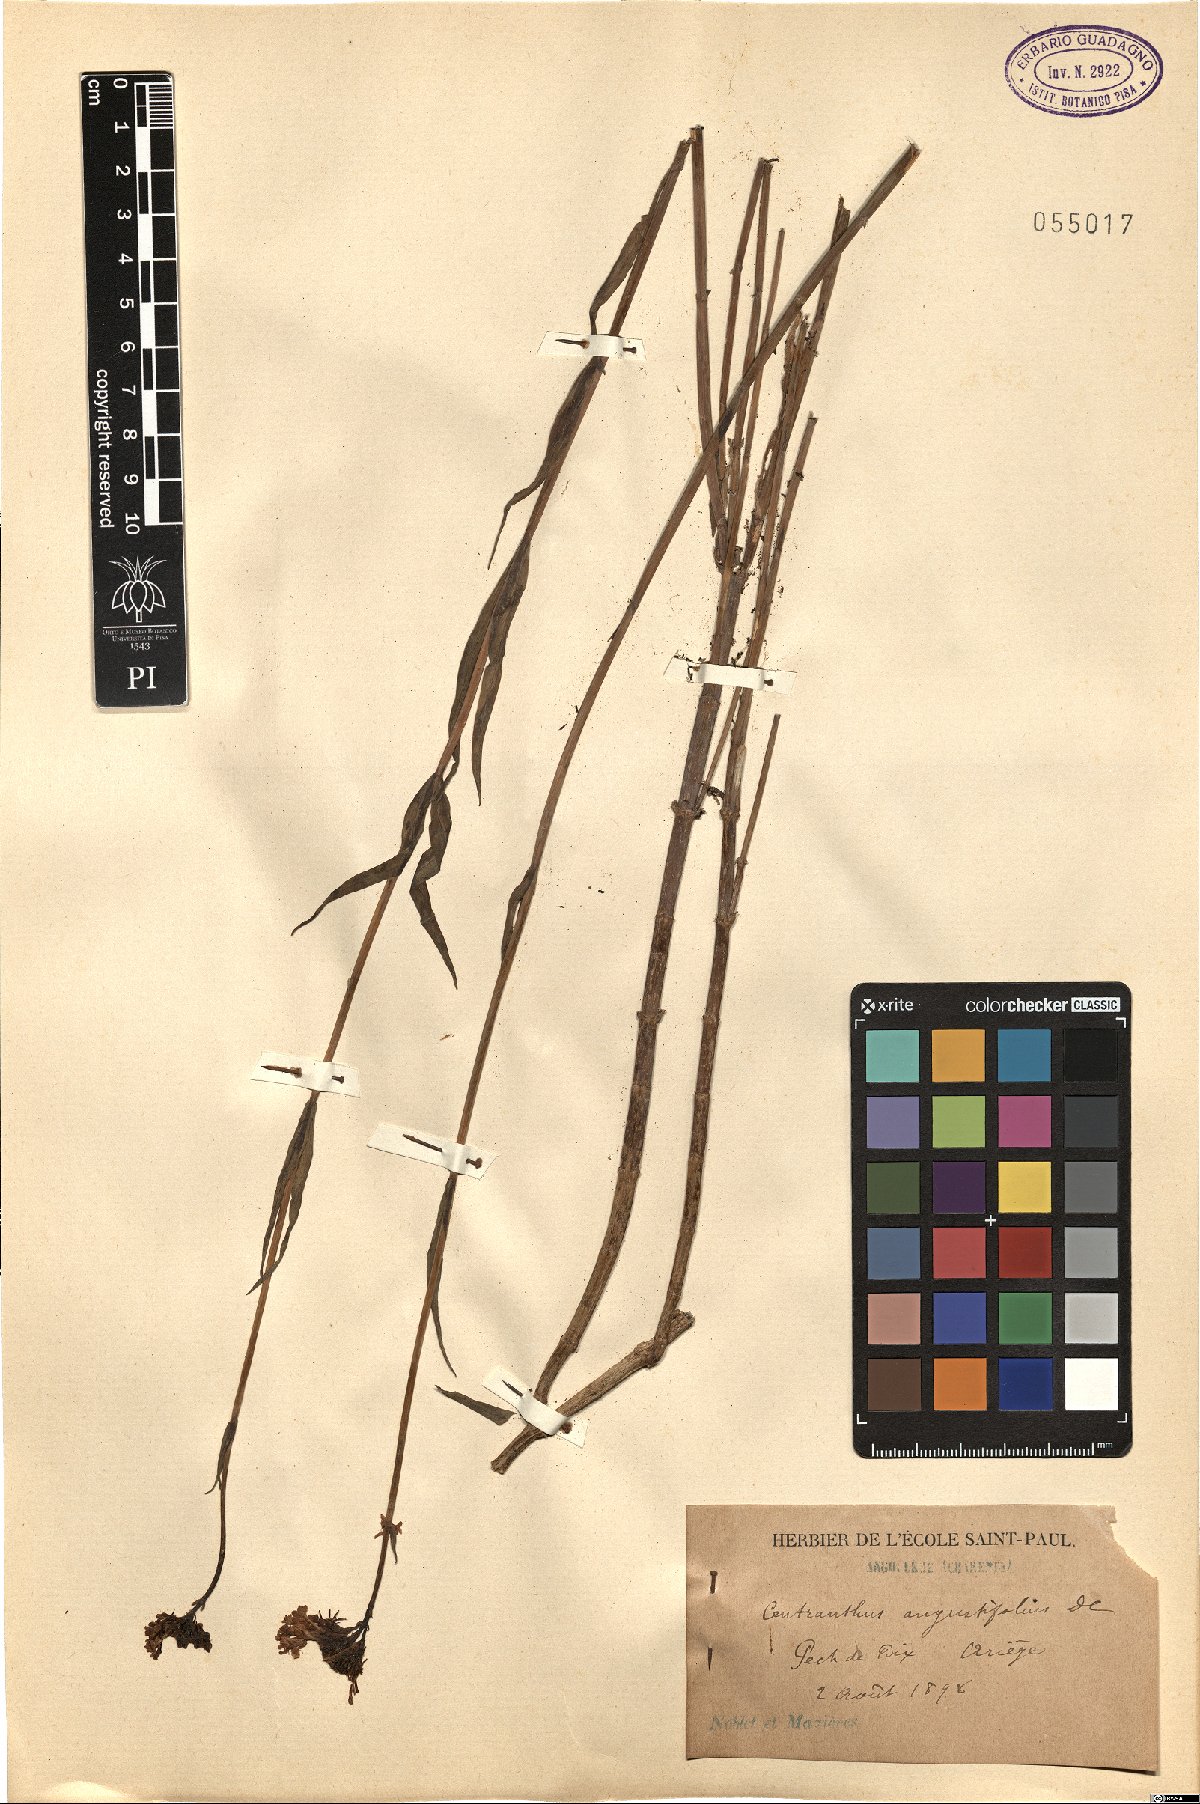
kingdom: Plantae
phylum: Tracheophyta
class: Magnoliopsida
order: Dipsacales
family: Caprifoliaceae
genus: Centranthus
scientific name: Centranthus angustifolius
